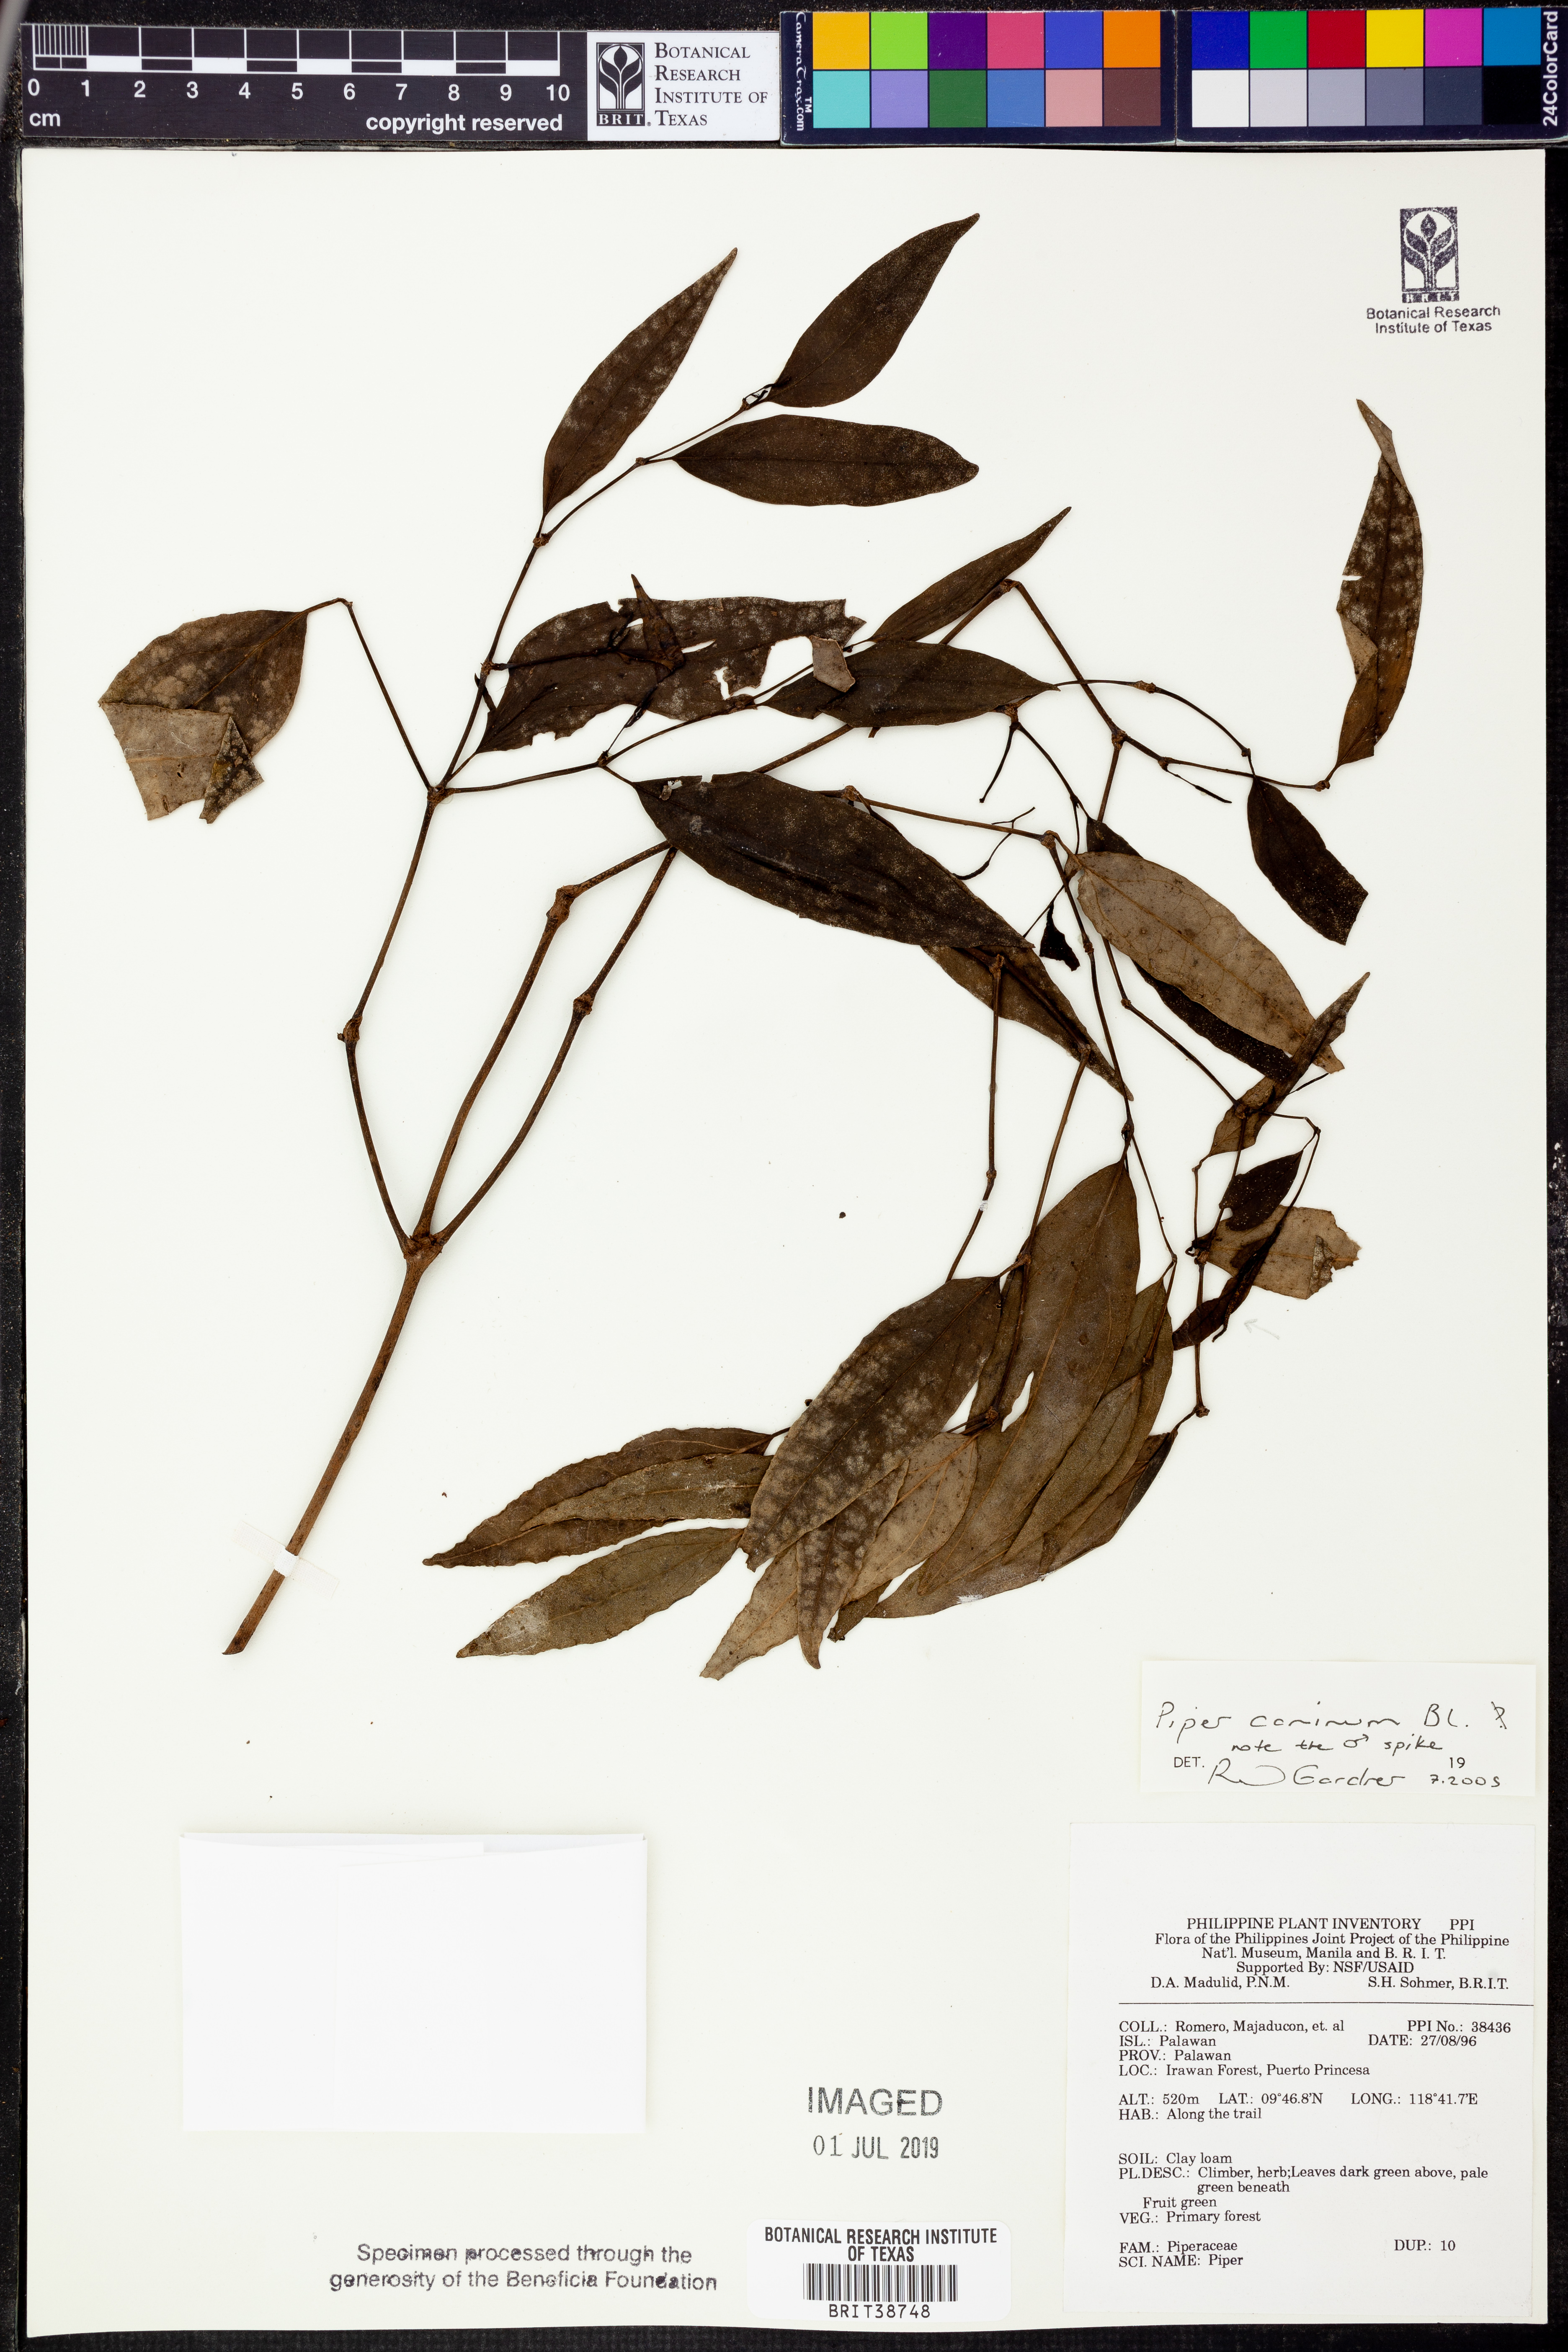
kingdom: Plantae
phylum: Tracheophyta
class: Magnoliopsida
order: Piperales
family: Piperaceae
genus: Piper
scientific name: Piper lanatum
